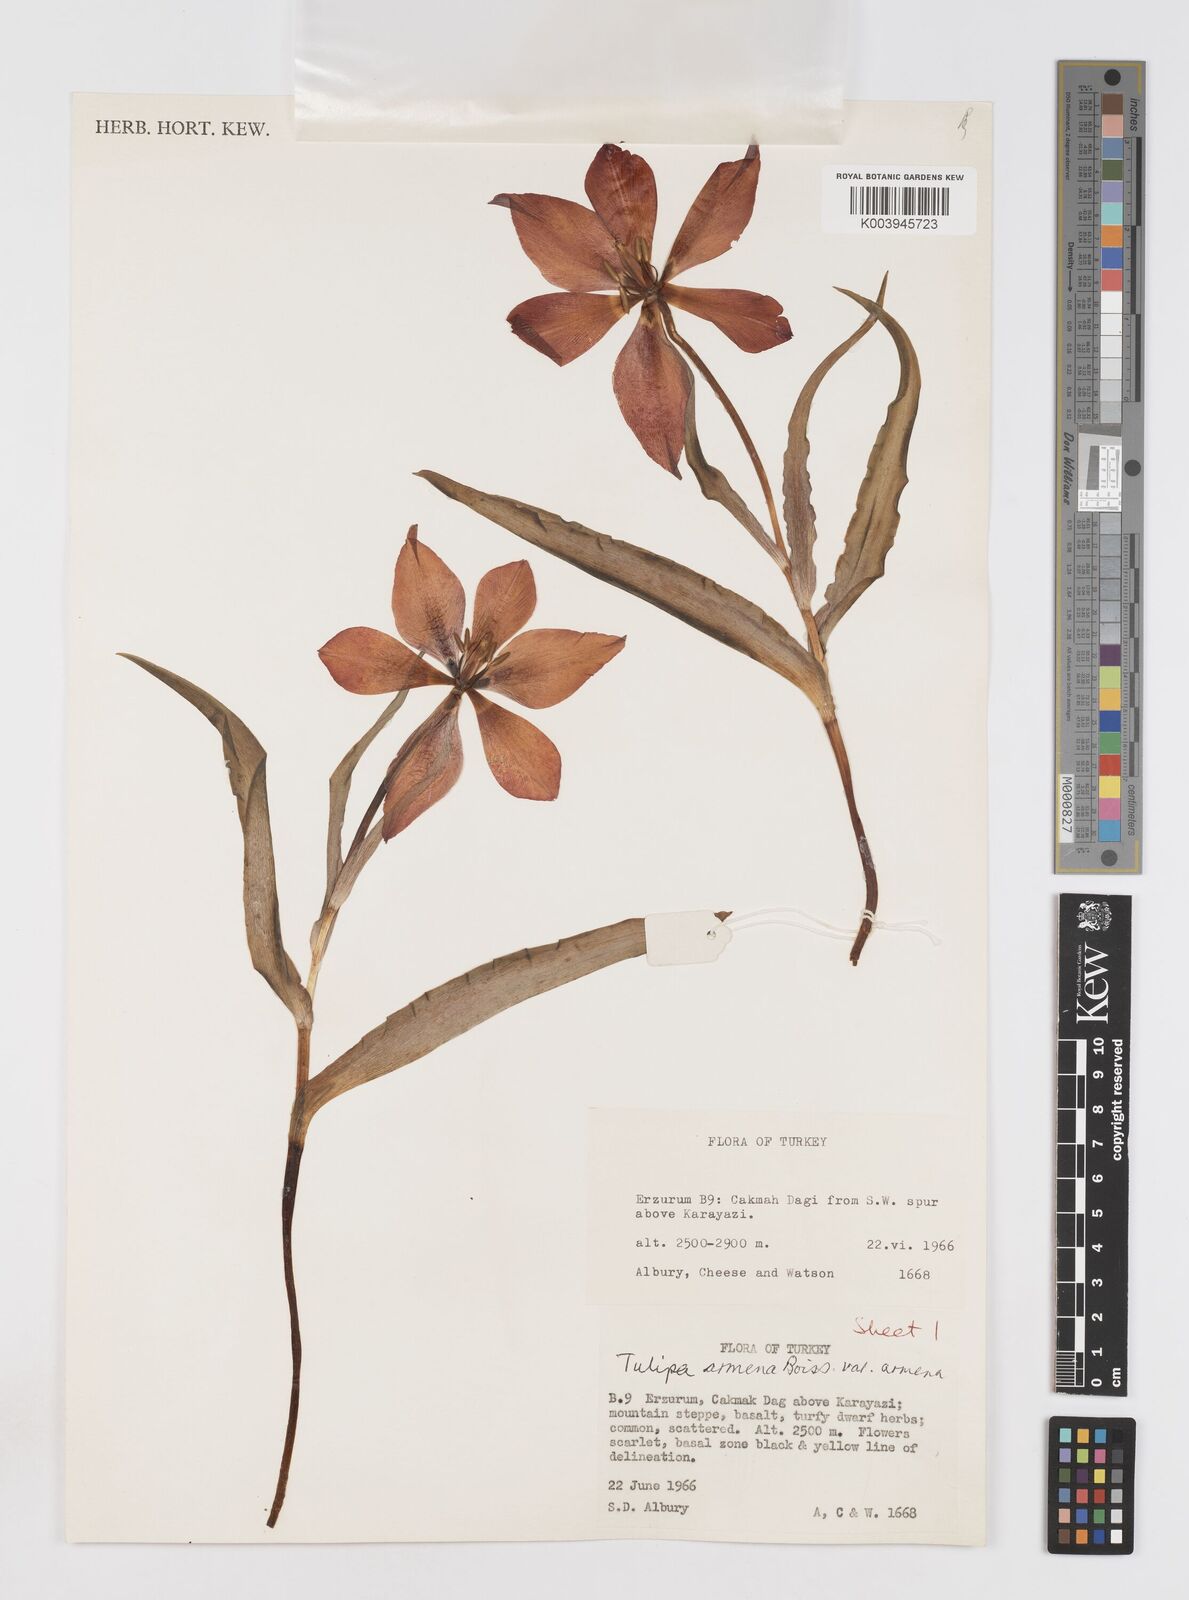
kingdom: Plantae
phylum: Tracheophyta
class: Liliopsida
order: Liliales
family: Liliaceae
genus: Tulipa
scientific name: Tulipa armena
